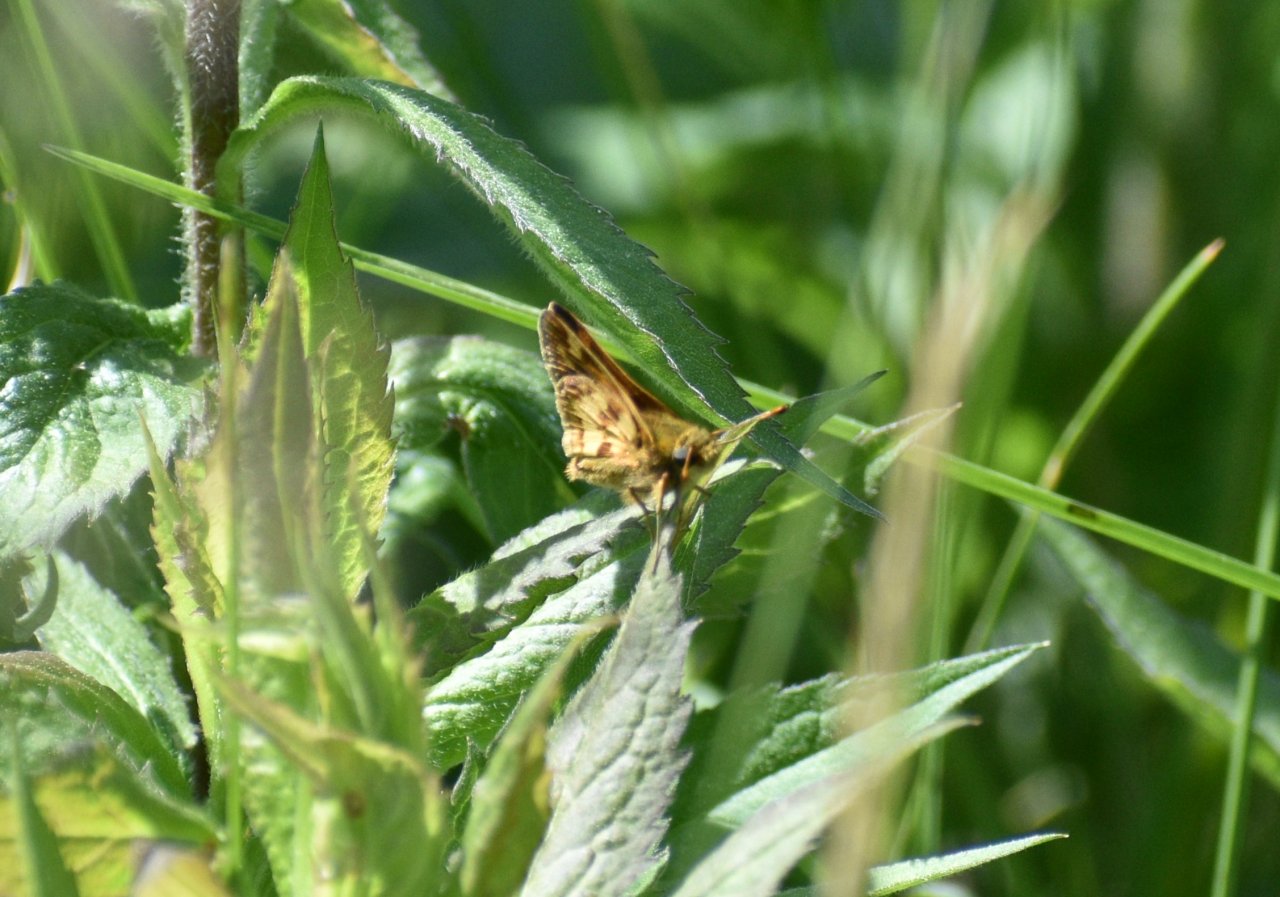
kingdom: Animalia
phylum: Arthropoda
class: Insecta
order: Lepidoptera
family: Hesperiidae
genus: Polites
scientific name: Polites coras
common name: Peck's Skipper
